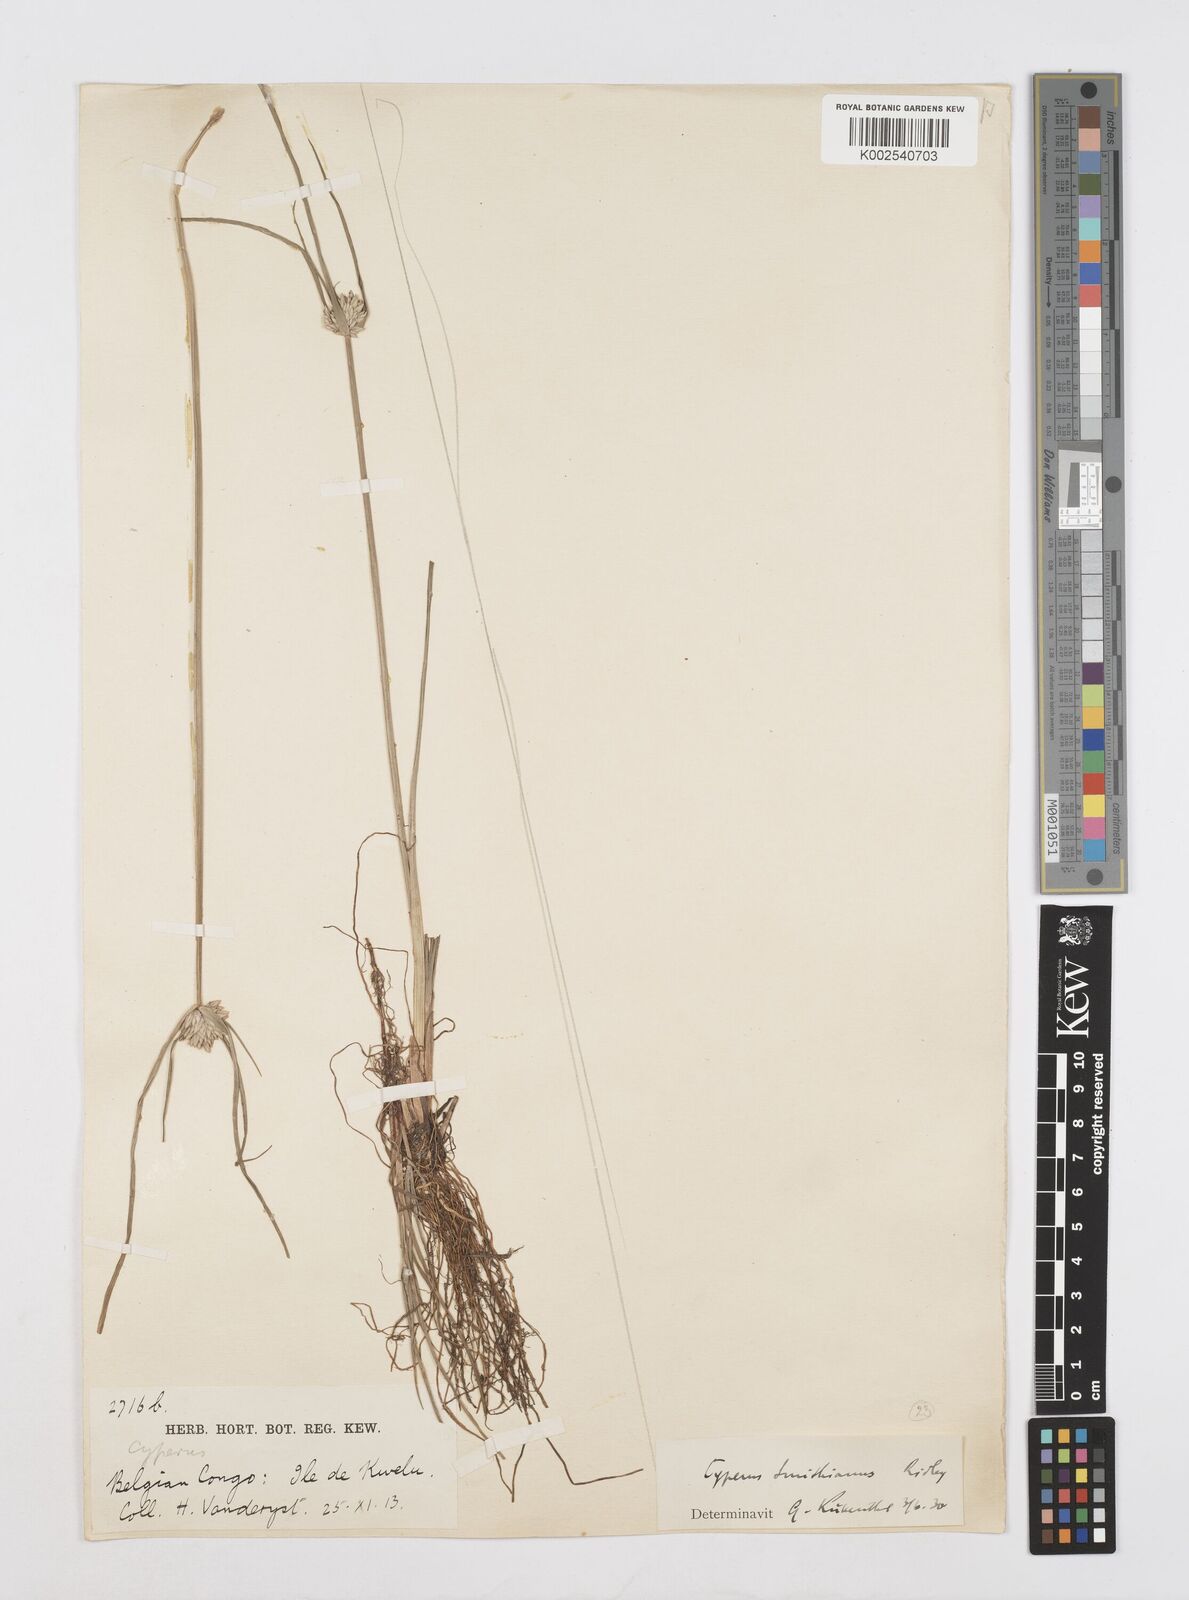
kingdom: Plantae
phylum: Tracheophyta
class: Liliopsida
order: Poales
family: Cyperaceae
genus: Cyperus
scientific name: Cyperus smithianus
